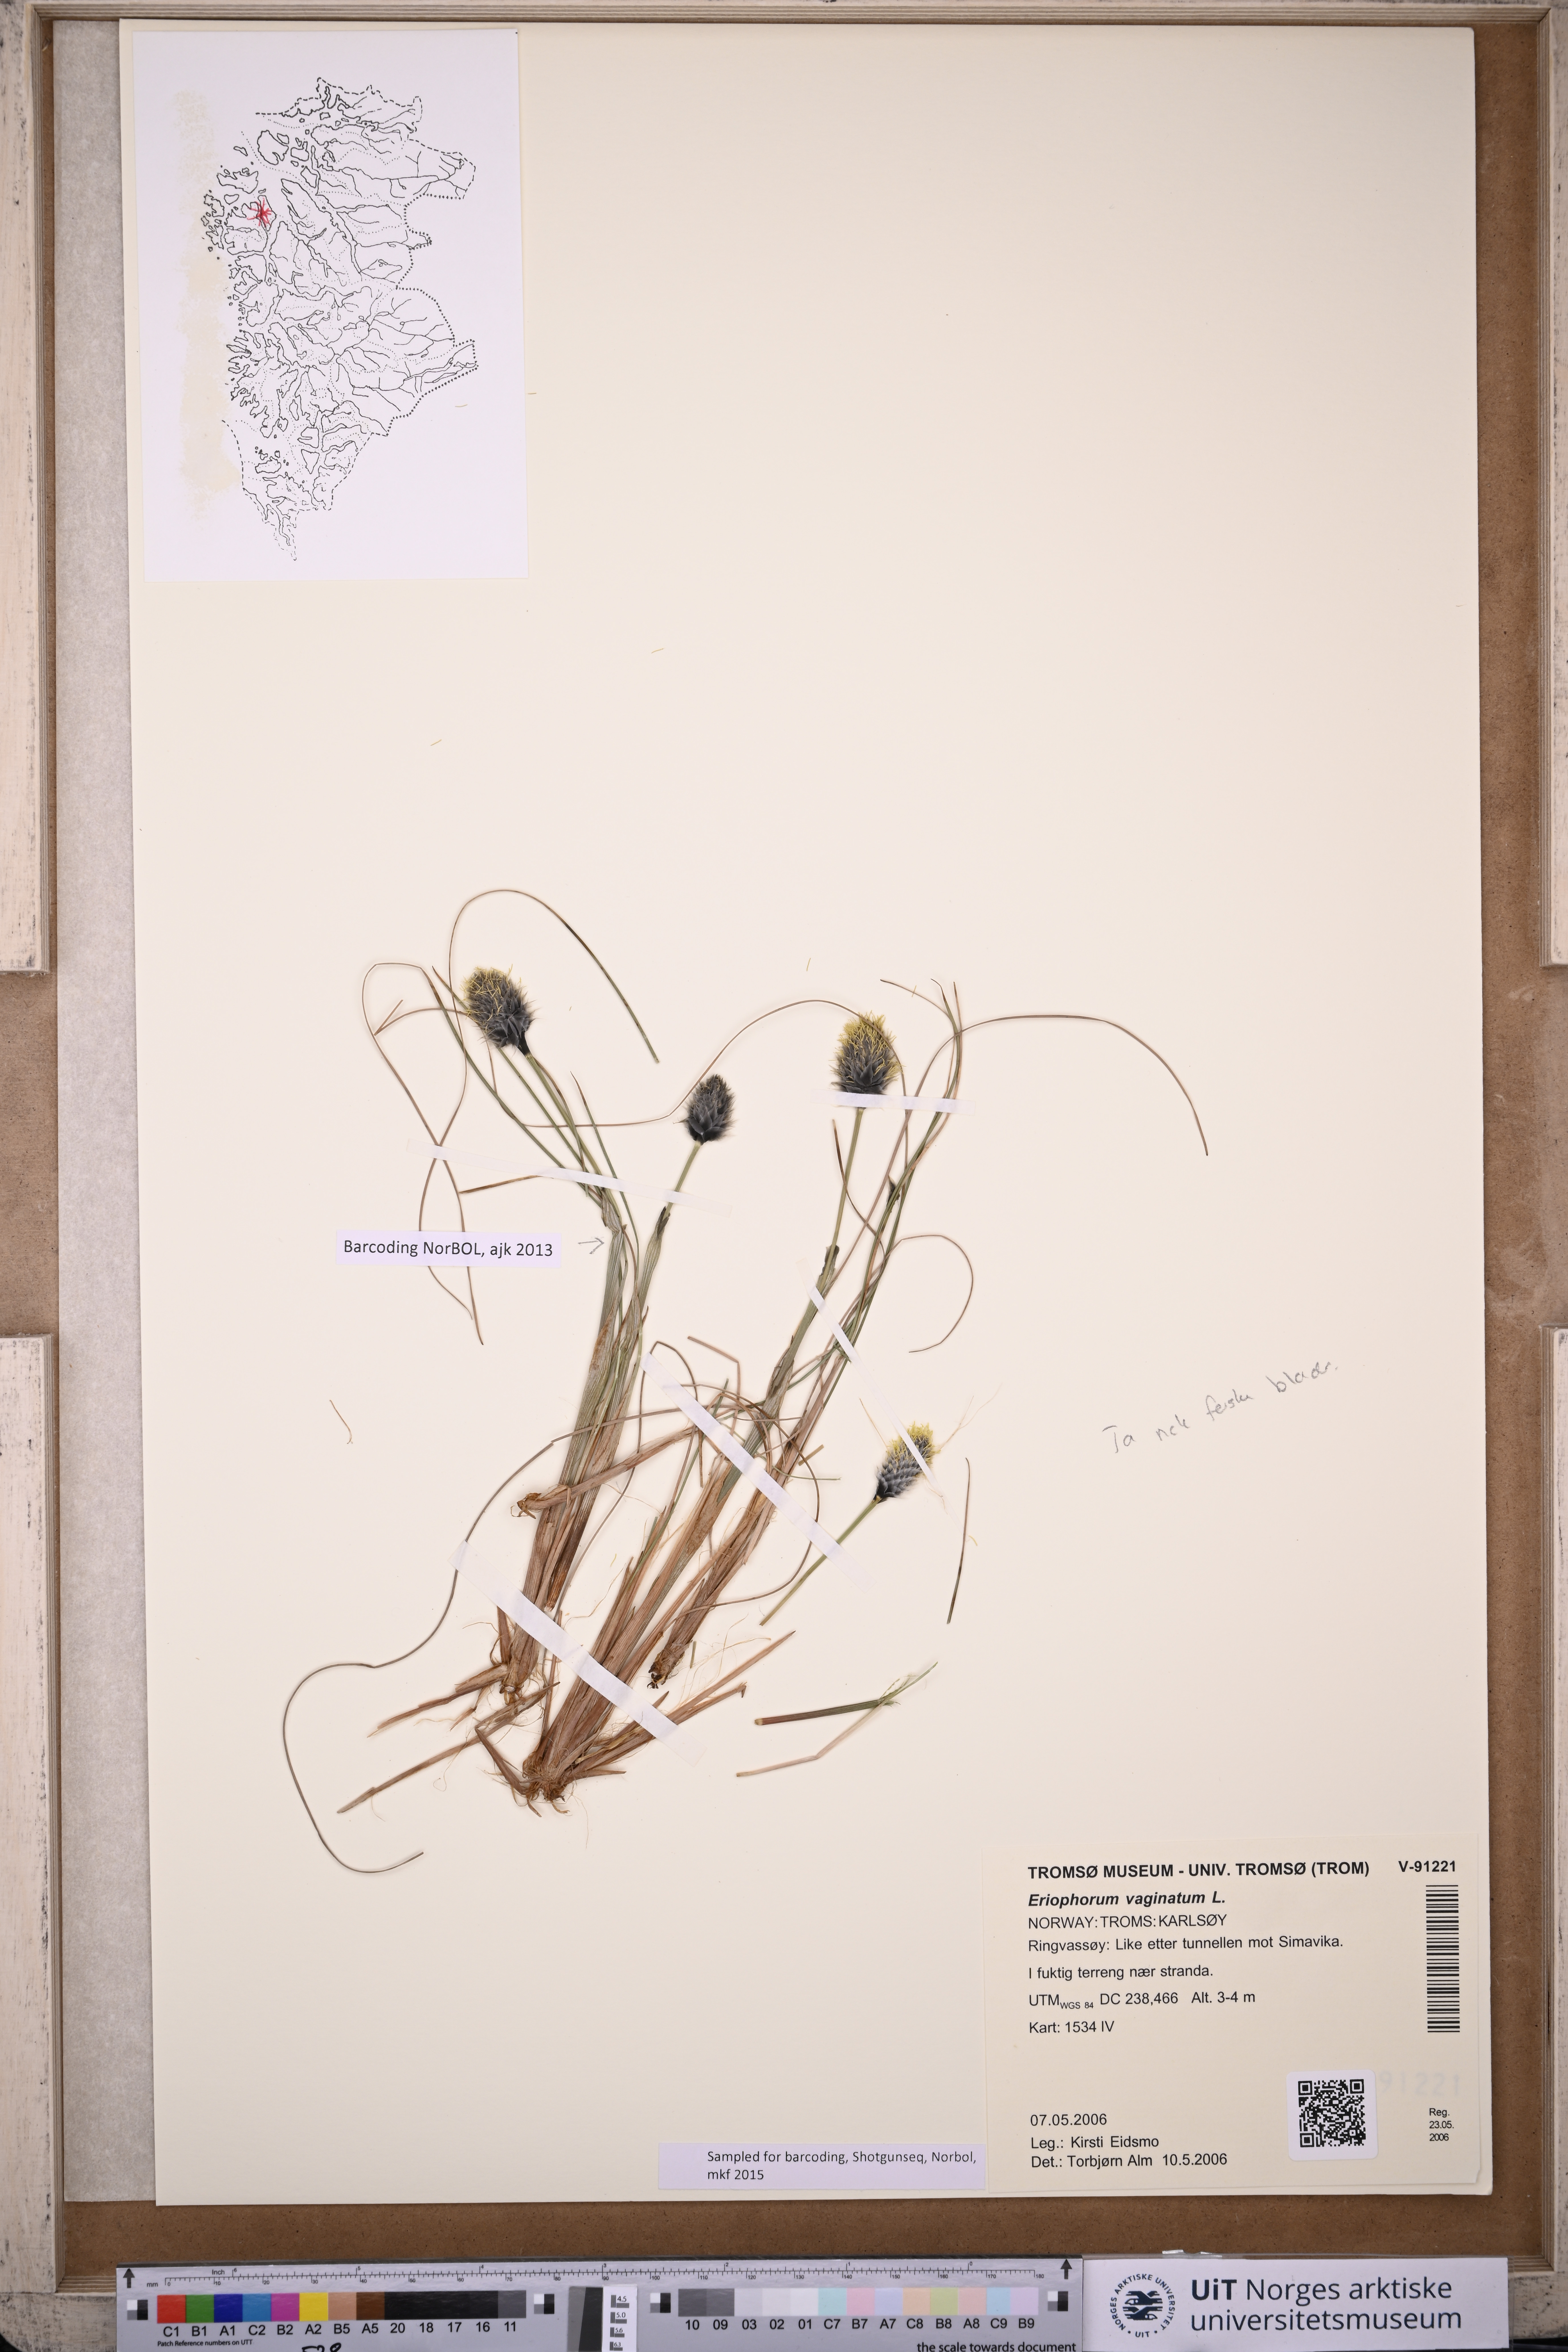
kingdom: Plantae
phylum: Tracheophyta
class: Liliopsida
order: Poales
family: Cyperaceae
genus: Eriophorum
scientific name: Eriophorum vaginatum
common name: Hare's-tail cottongrass
